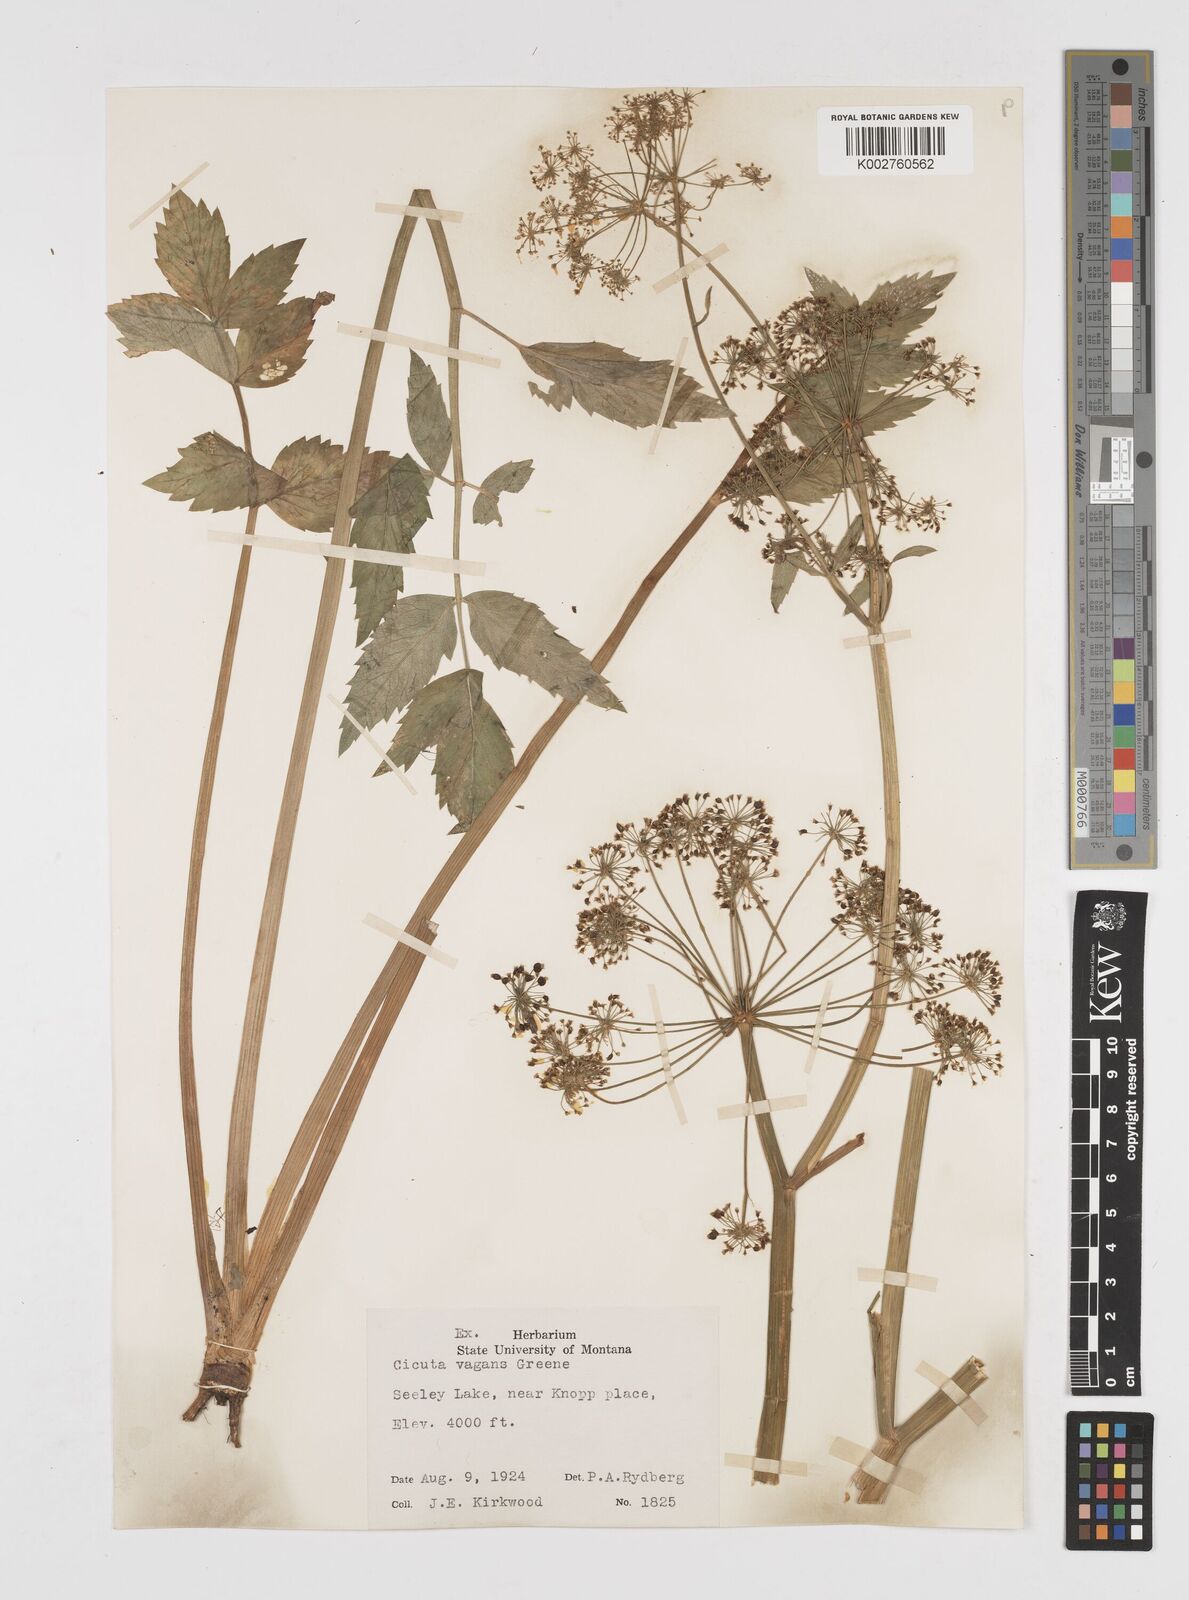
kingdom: Plantae
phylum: Tracheophyta
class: Magnoliopsida
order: Apiales
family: Apiaceae
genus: Cicuta
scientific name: Cicuta douglasii
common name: Western water-hemlock
